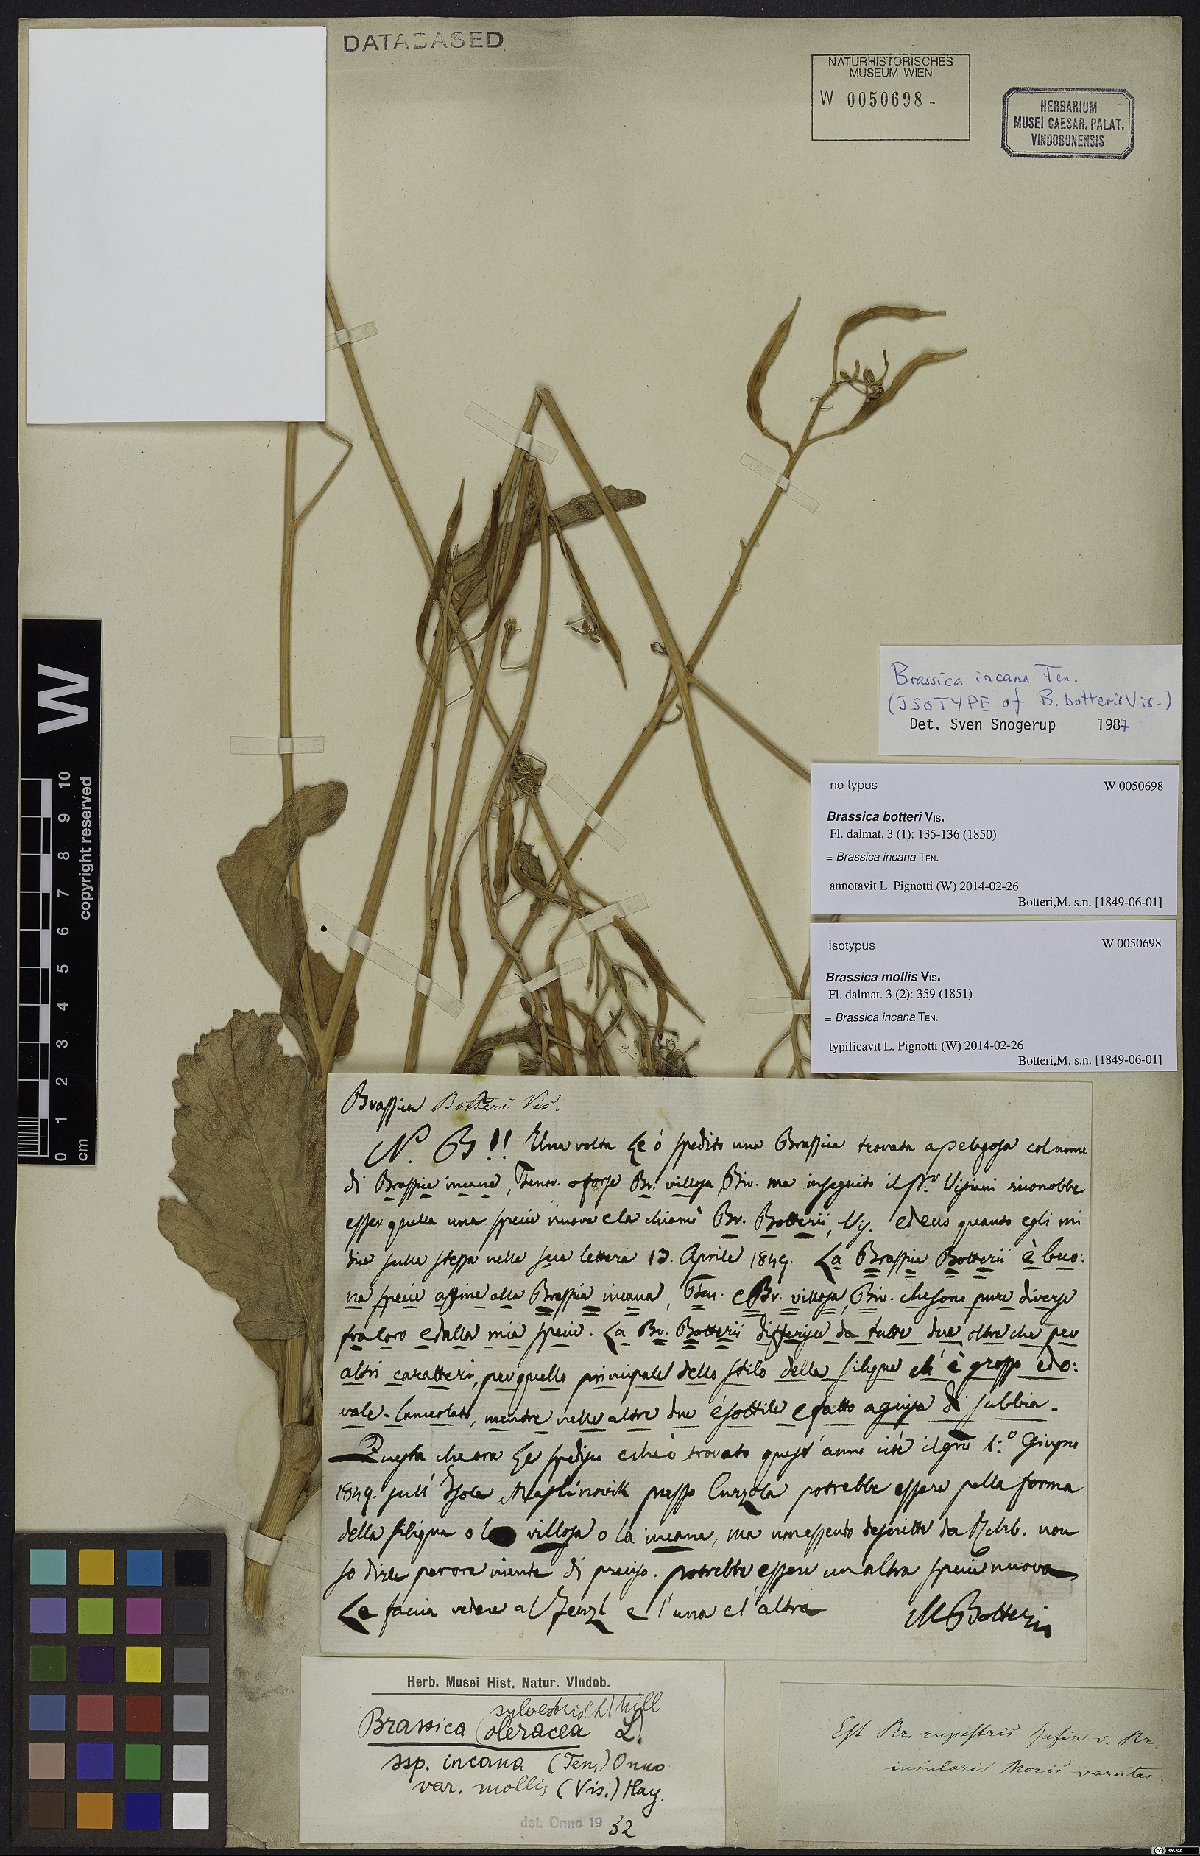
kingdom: Plantae
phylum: Tracheophyta
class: Magnoliopsida
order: Brassicales
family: Brassicaceae
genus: Brassica
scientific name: Brassica incana
